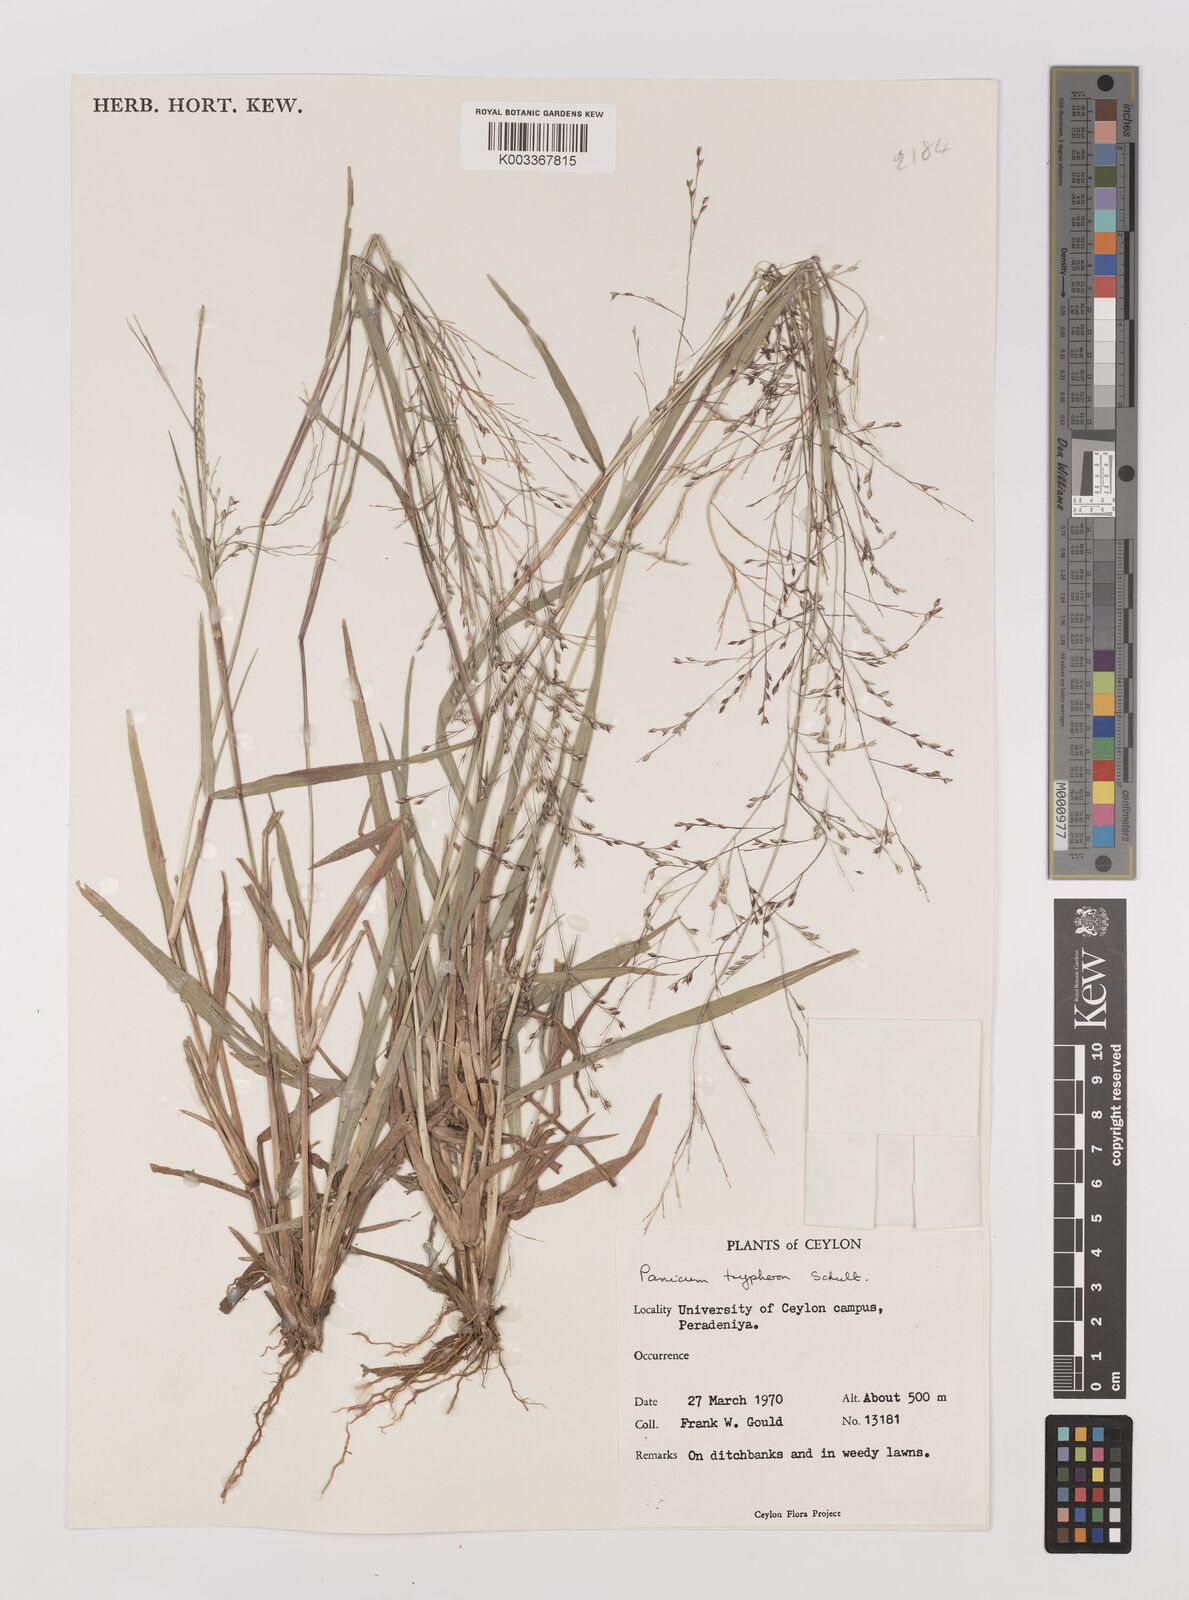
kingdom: Plantae
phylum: Tracheophyta
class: Liliopsida
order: Poales
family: Poaceae
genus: Panicum
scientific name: Panicum curviflorum
